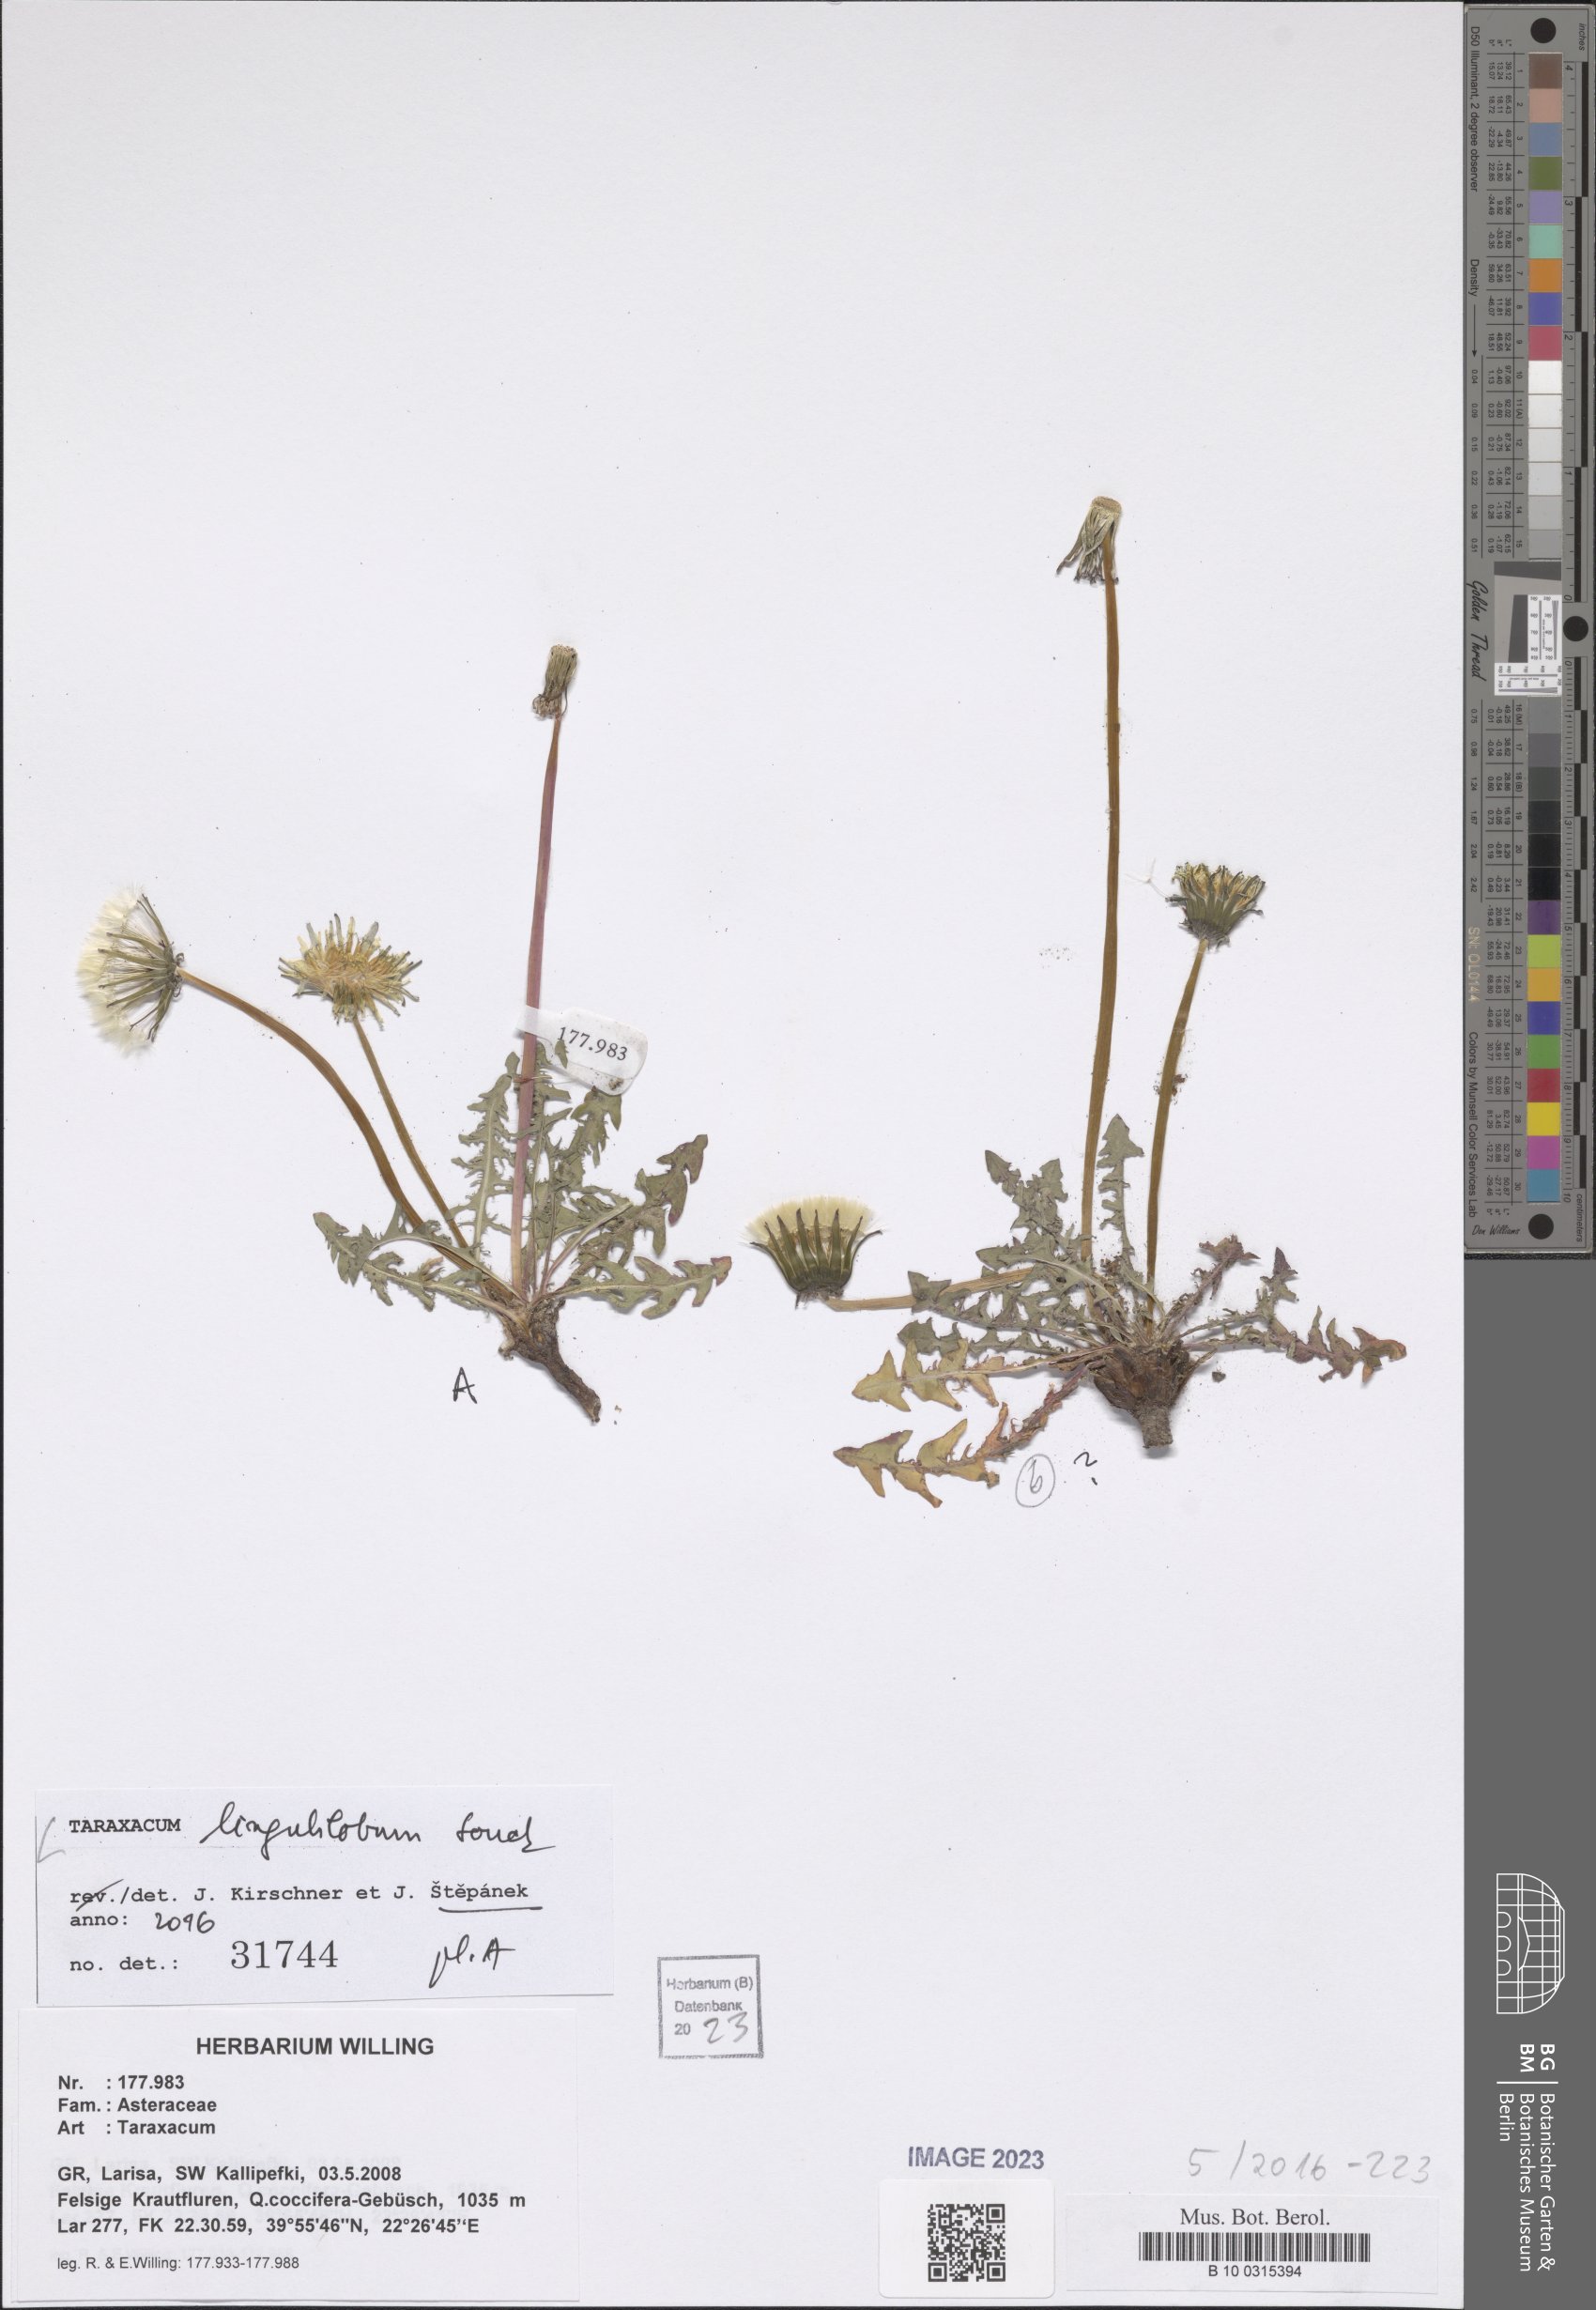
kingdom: Plantae
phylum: Tracheophyta
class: Magnoliopsida
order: Asterales
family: Asteraceae
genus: Taraxacum
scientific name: Taraxacum
